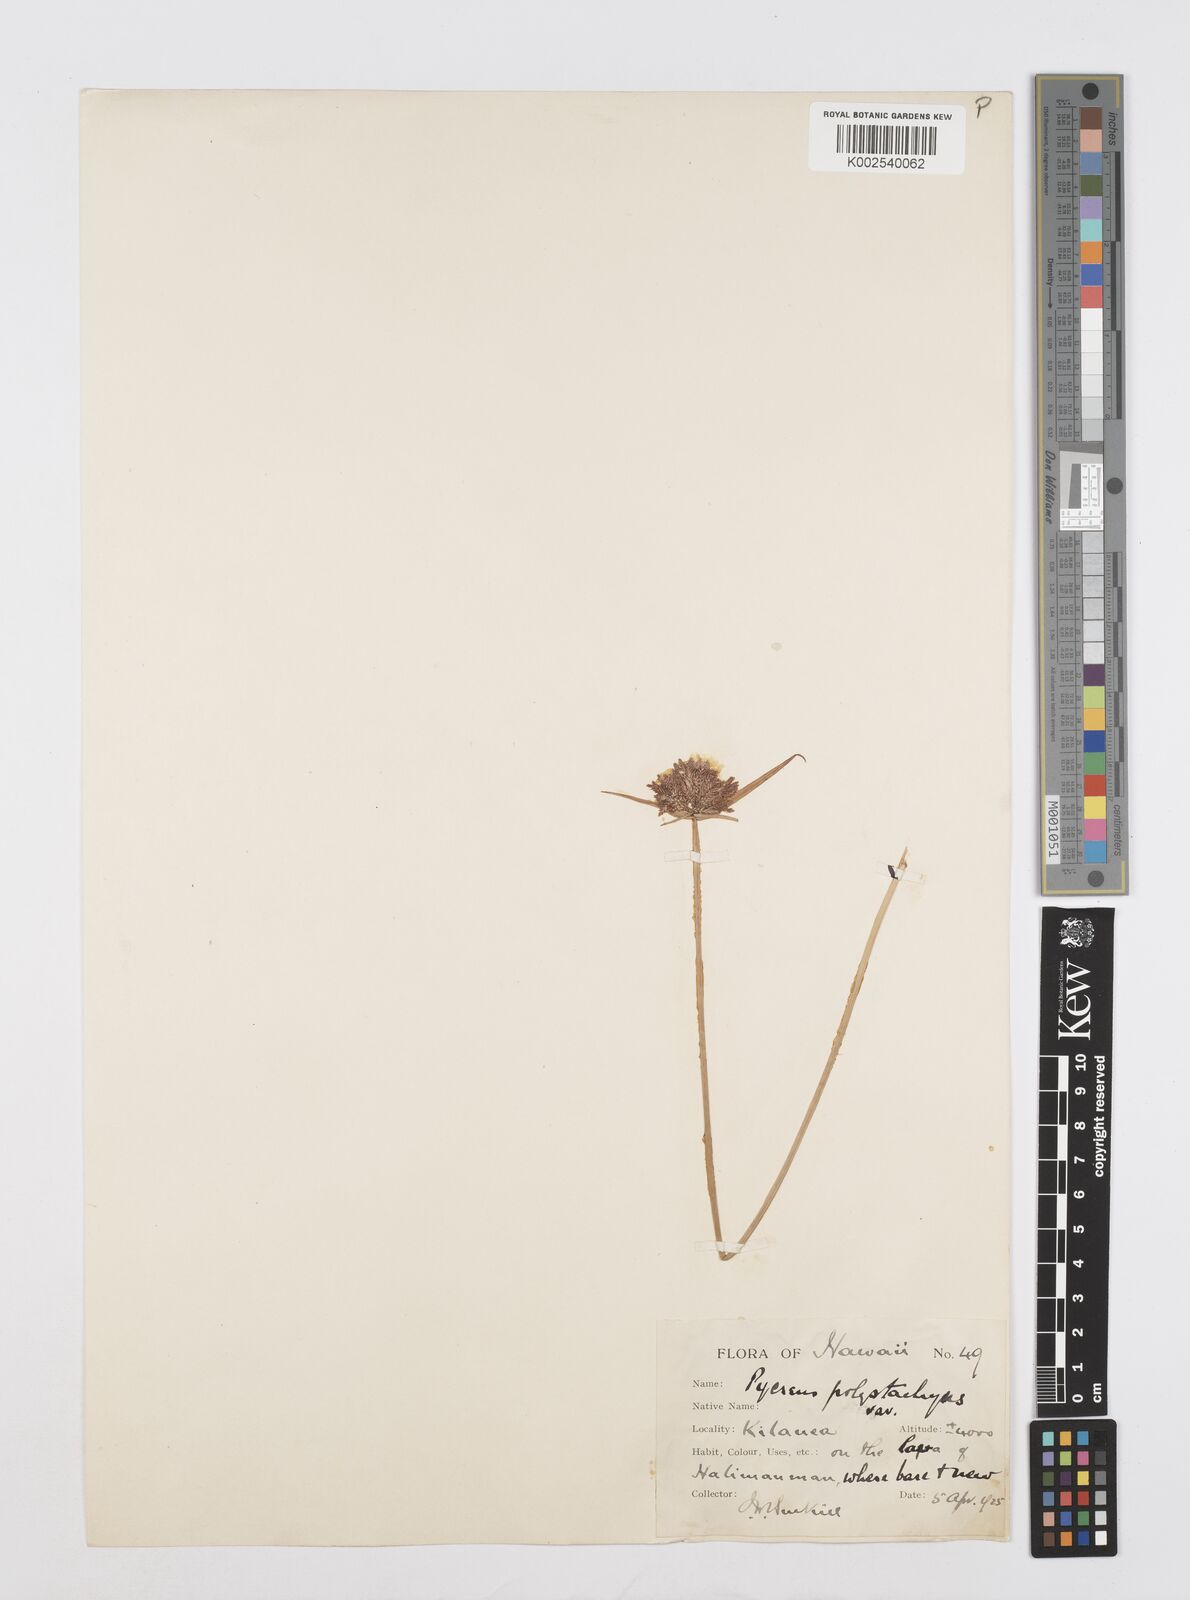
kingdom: Plantae
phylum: Tracheophyta
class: Liliopsida
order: Poales
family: Cyperaceae
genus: Cyperus
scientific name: Cyperus polystachyos
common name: Bunchy flat sedge
